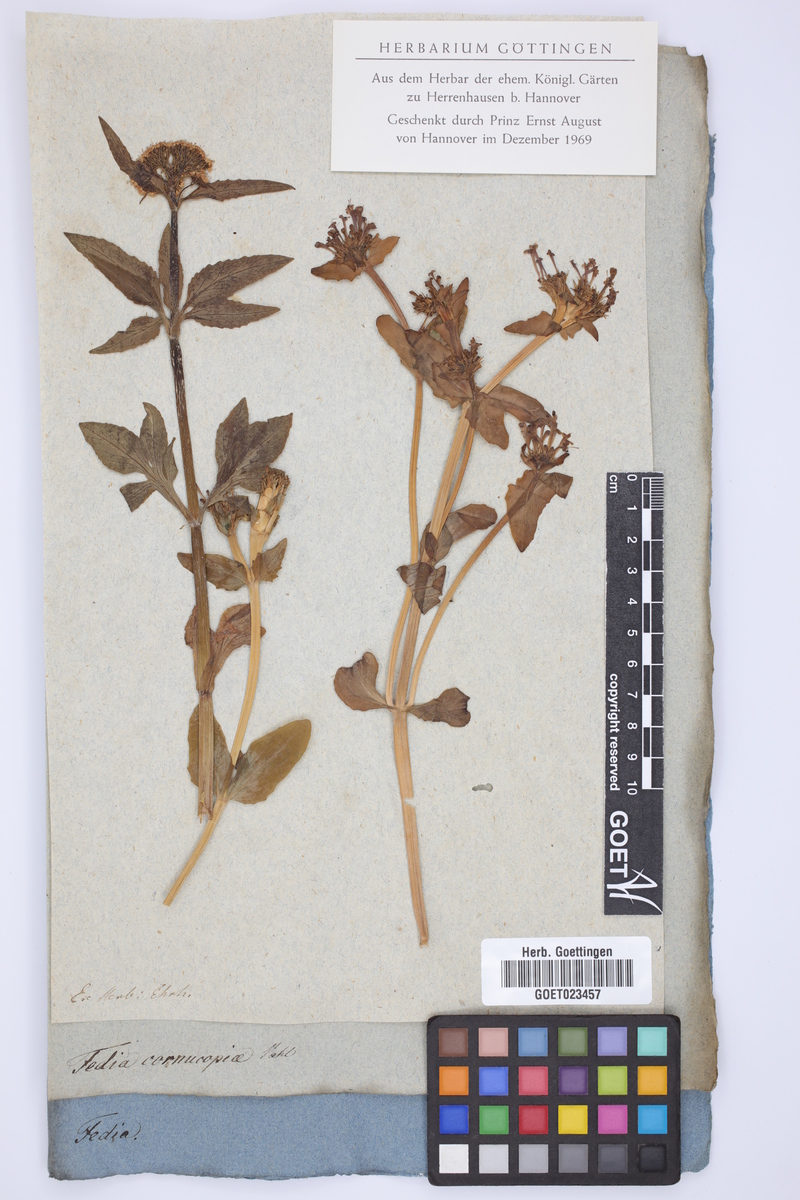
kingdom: Plantae
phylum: Tracheophyta
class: Magnoliopsida
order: Dipsacales
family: Caprifoliaceae
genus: Fedia
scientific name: Fedia cornucopiae
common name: Horn-of-plenty
